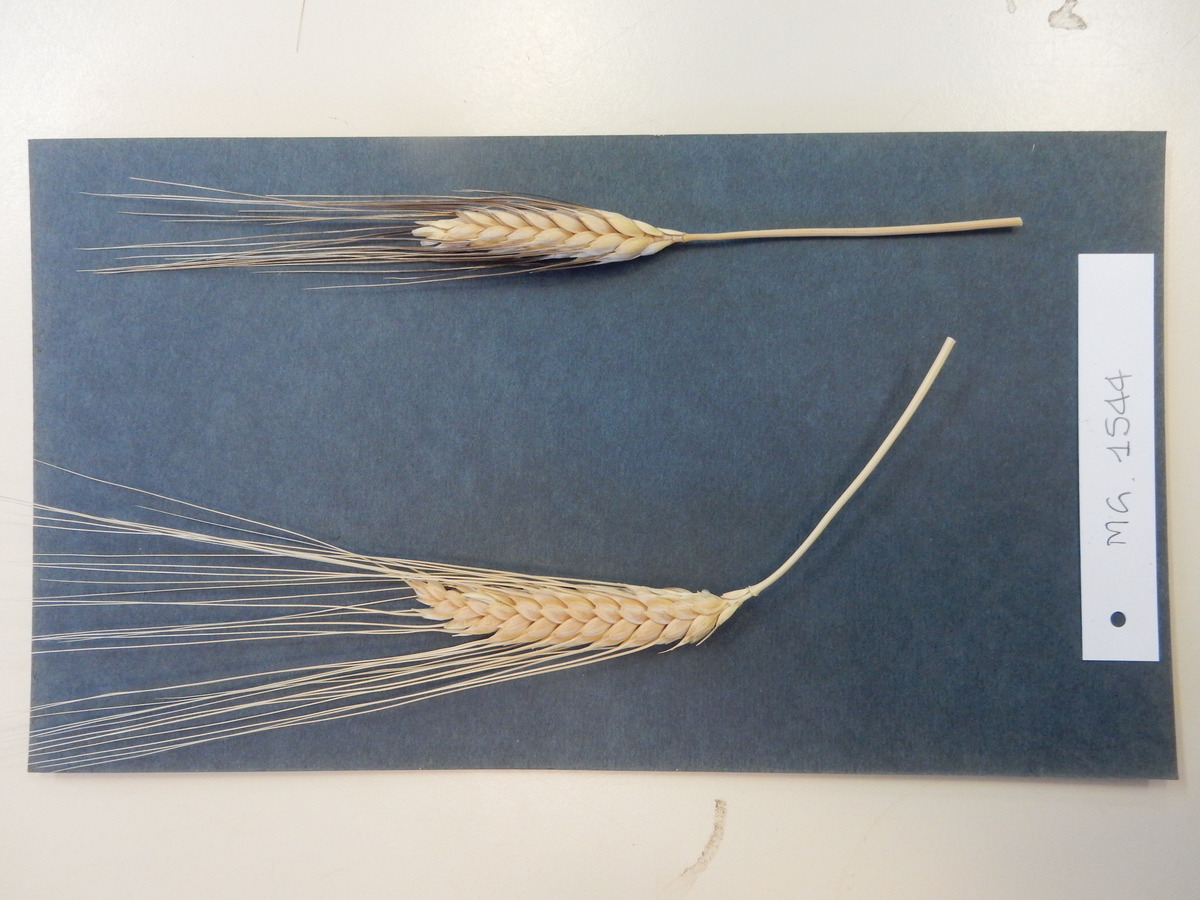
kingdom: Plantae
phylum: Tracheophyta
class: Liliopsida
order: Poales
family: Poaceae
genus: Triticum
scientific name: Triticum turgidum
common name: Wheat
